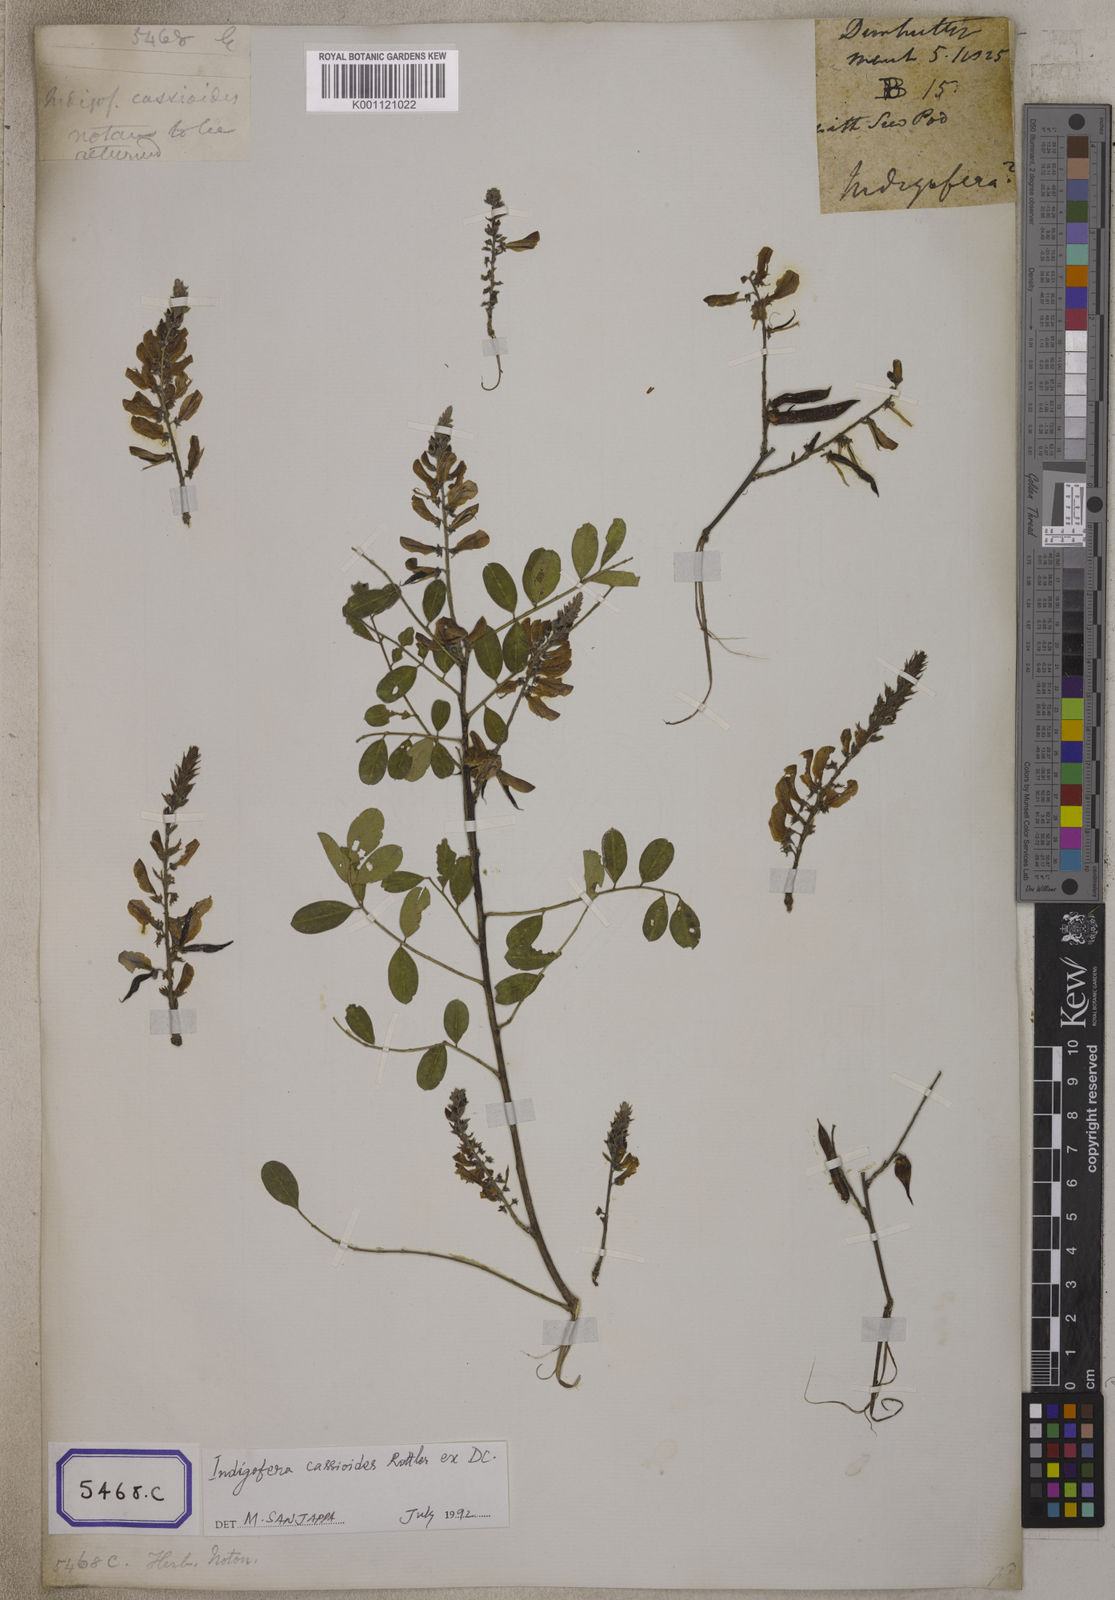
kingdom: Plantae
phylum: Tracheophyta
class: Magnoliopsida
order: Fabales
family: Fabaceae
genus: Indigofera
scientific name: Indigofera cassioides
